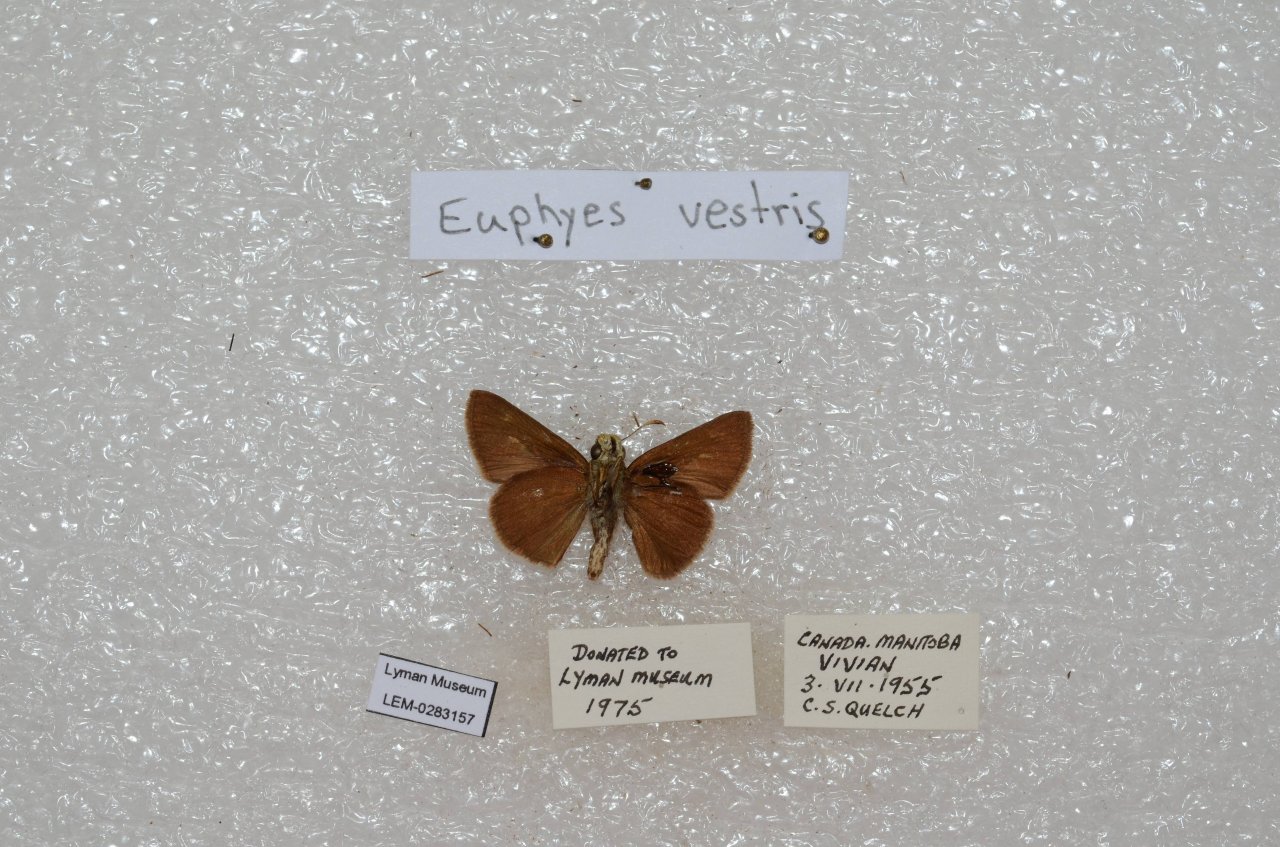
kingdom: Animalia
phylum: Arthropoda
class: Insecta
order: Lepidoptera
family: Hesperiidae
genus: Euphyes
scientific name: Euphyes vestris
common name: Dun Skipper
